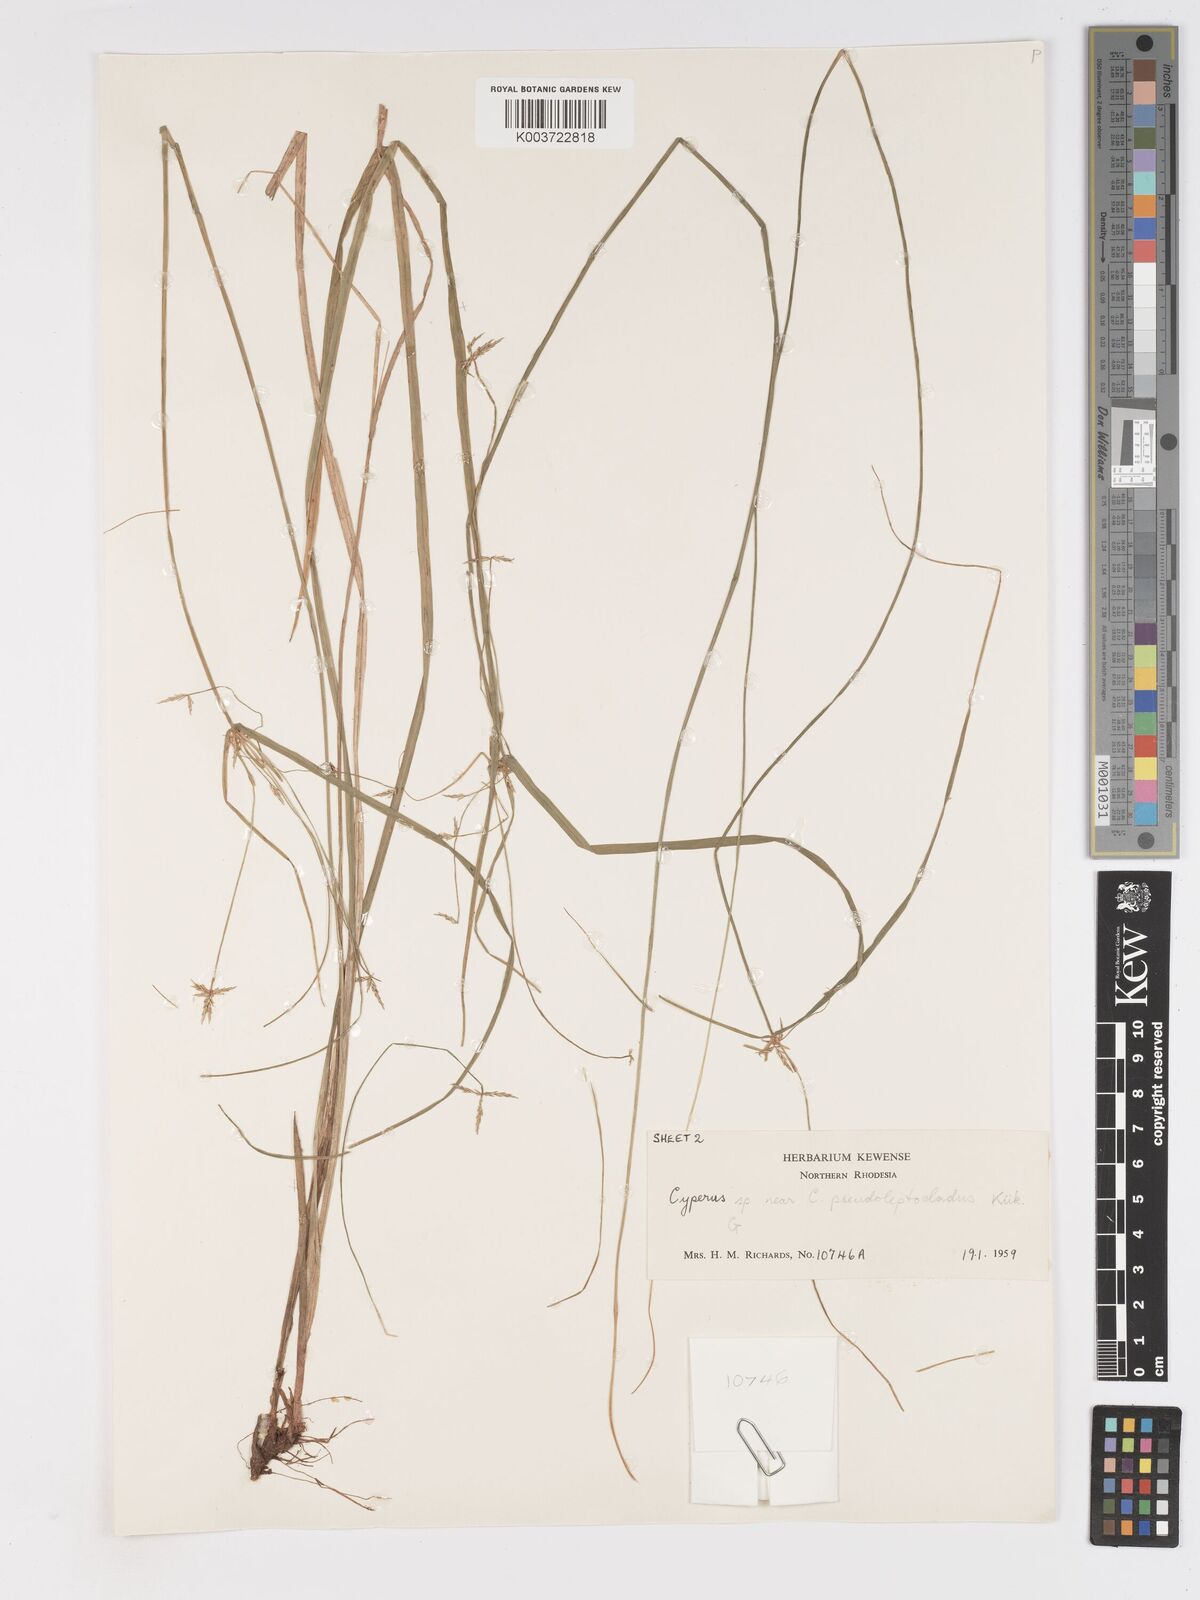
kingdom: Plantae
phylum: Tracheophyta
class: Liliopsida
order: Poales
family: Cyperaceae
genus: Cyperus
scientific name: Cyperus glaucophyllus
